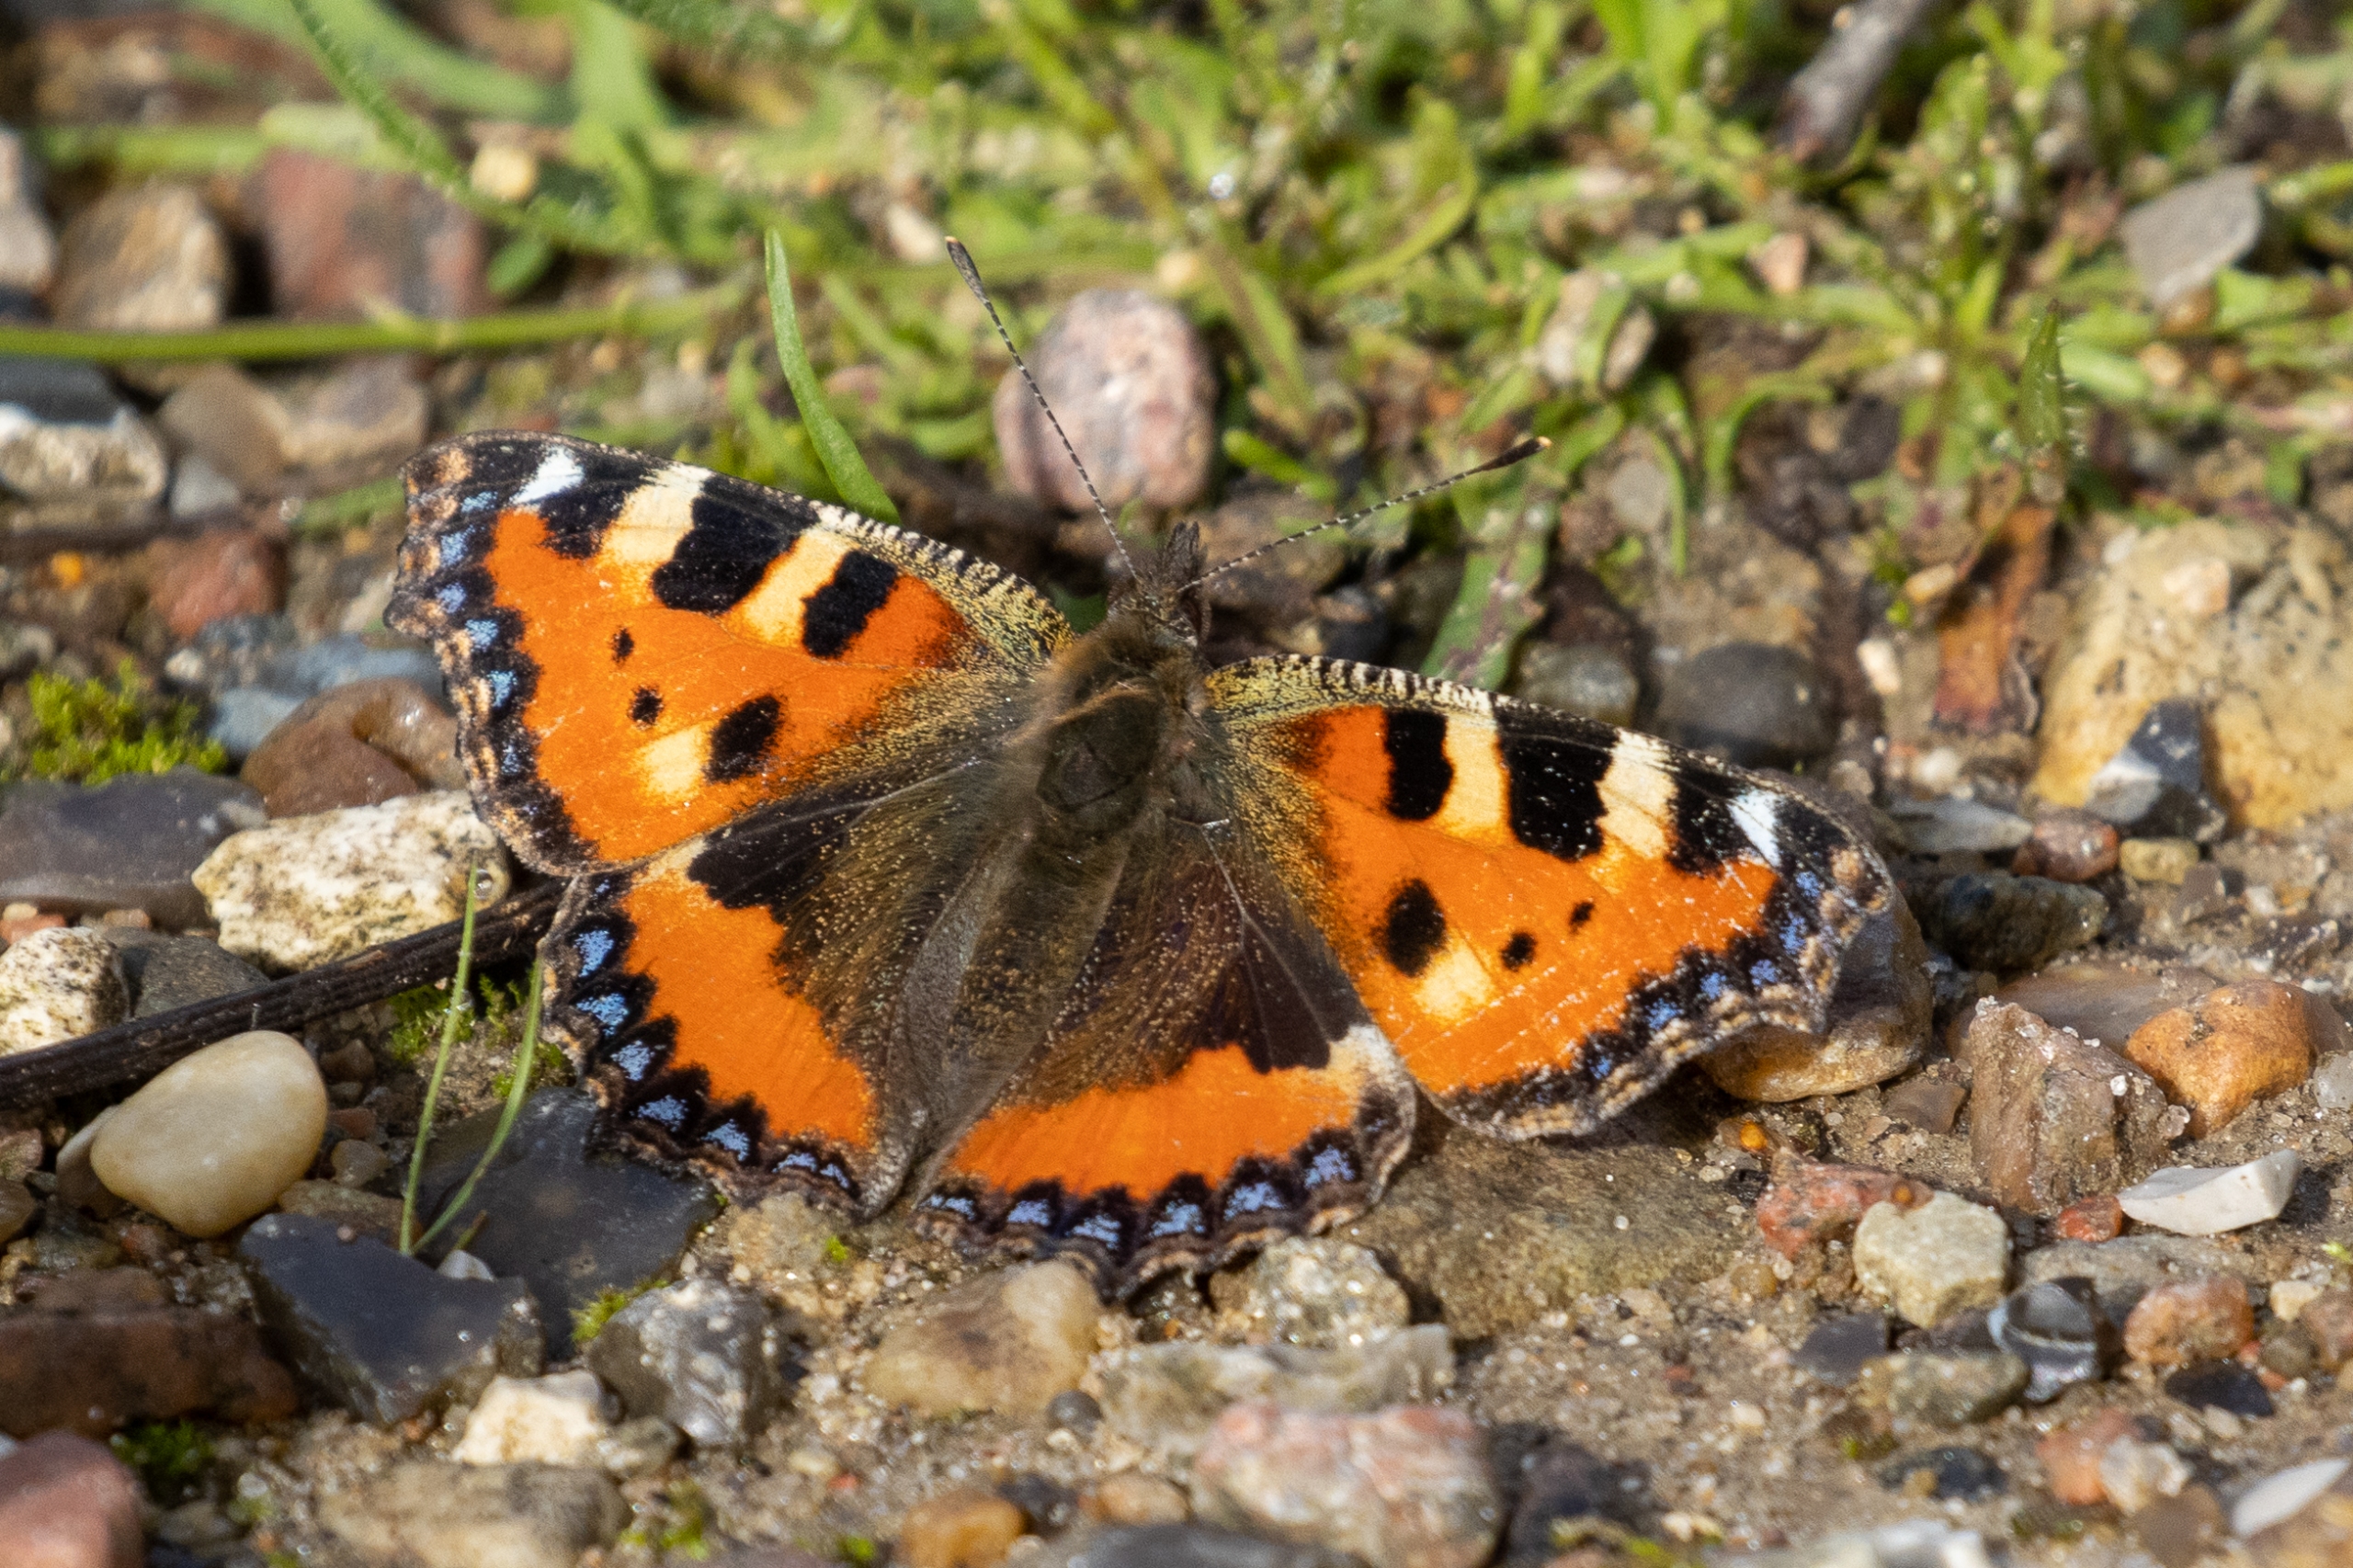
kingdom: Animalia
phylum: Arthropoda
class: Insecta
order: Lepidoptera
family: Nymphalidae
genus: Aglais
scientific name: Aglais urticae
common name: Nældens takvinge
